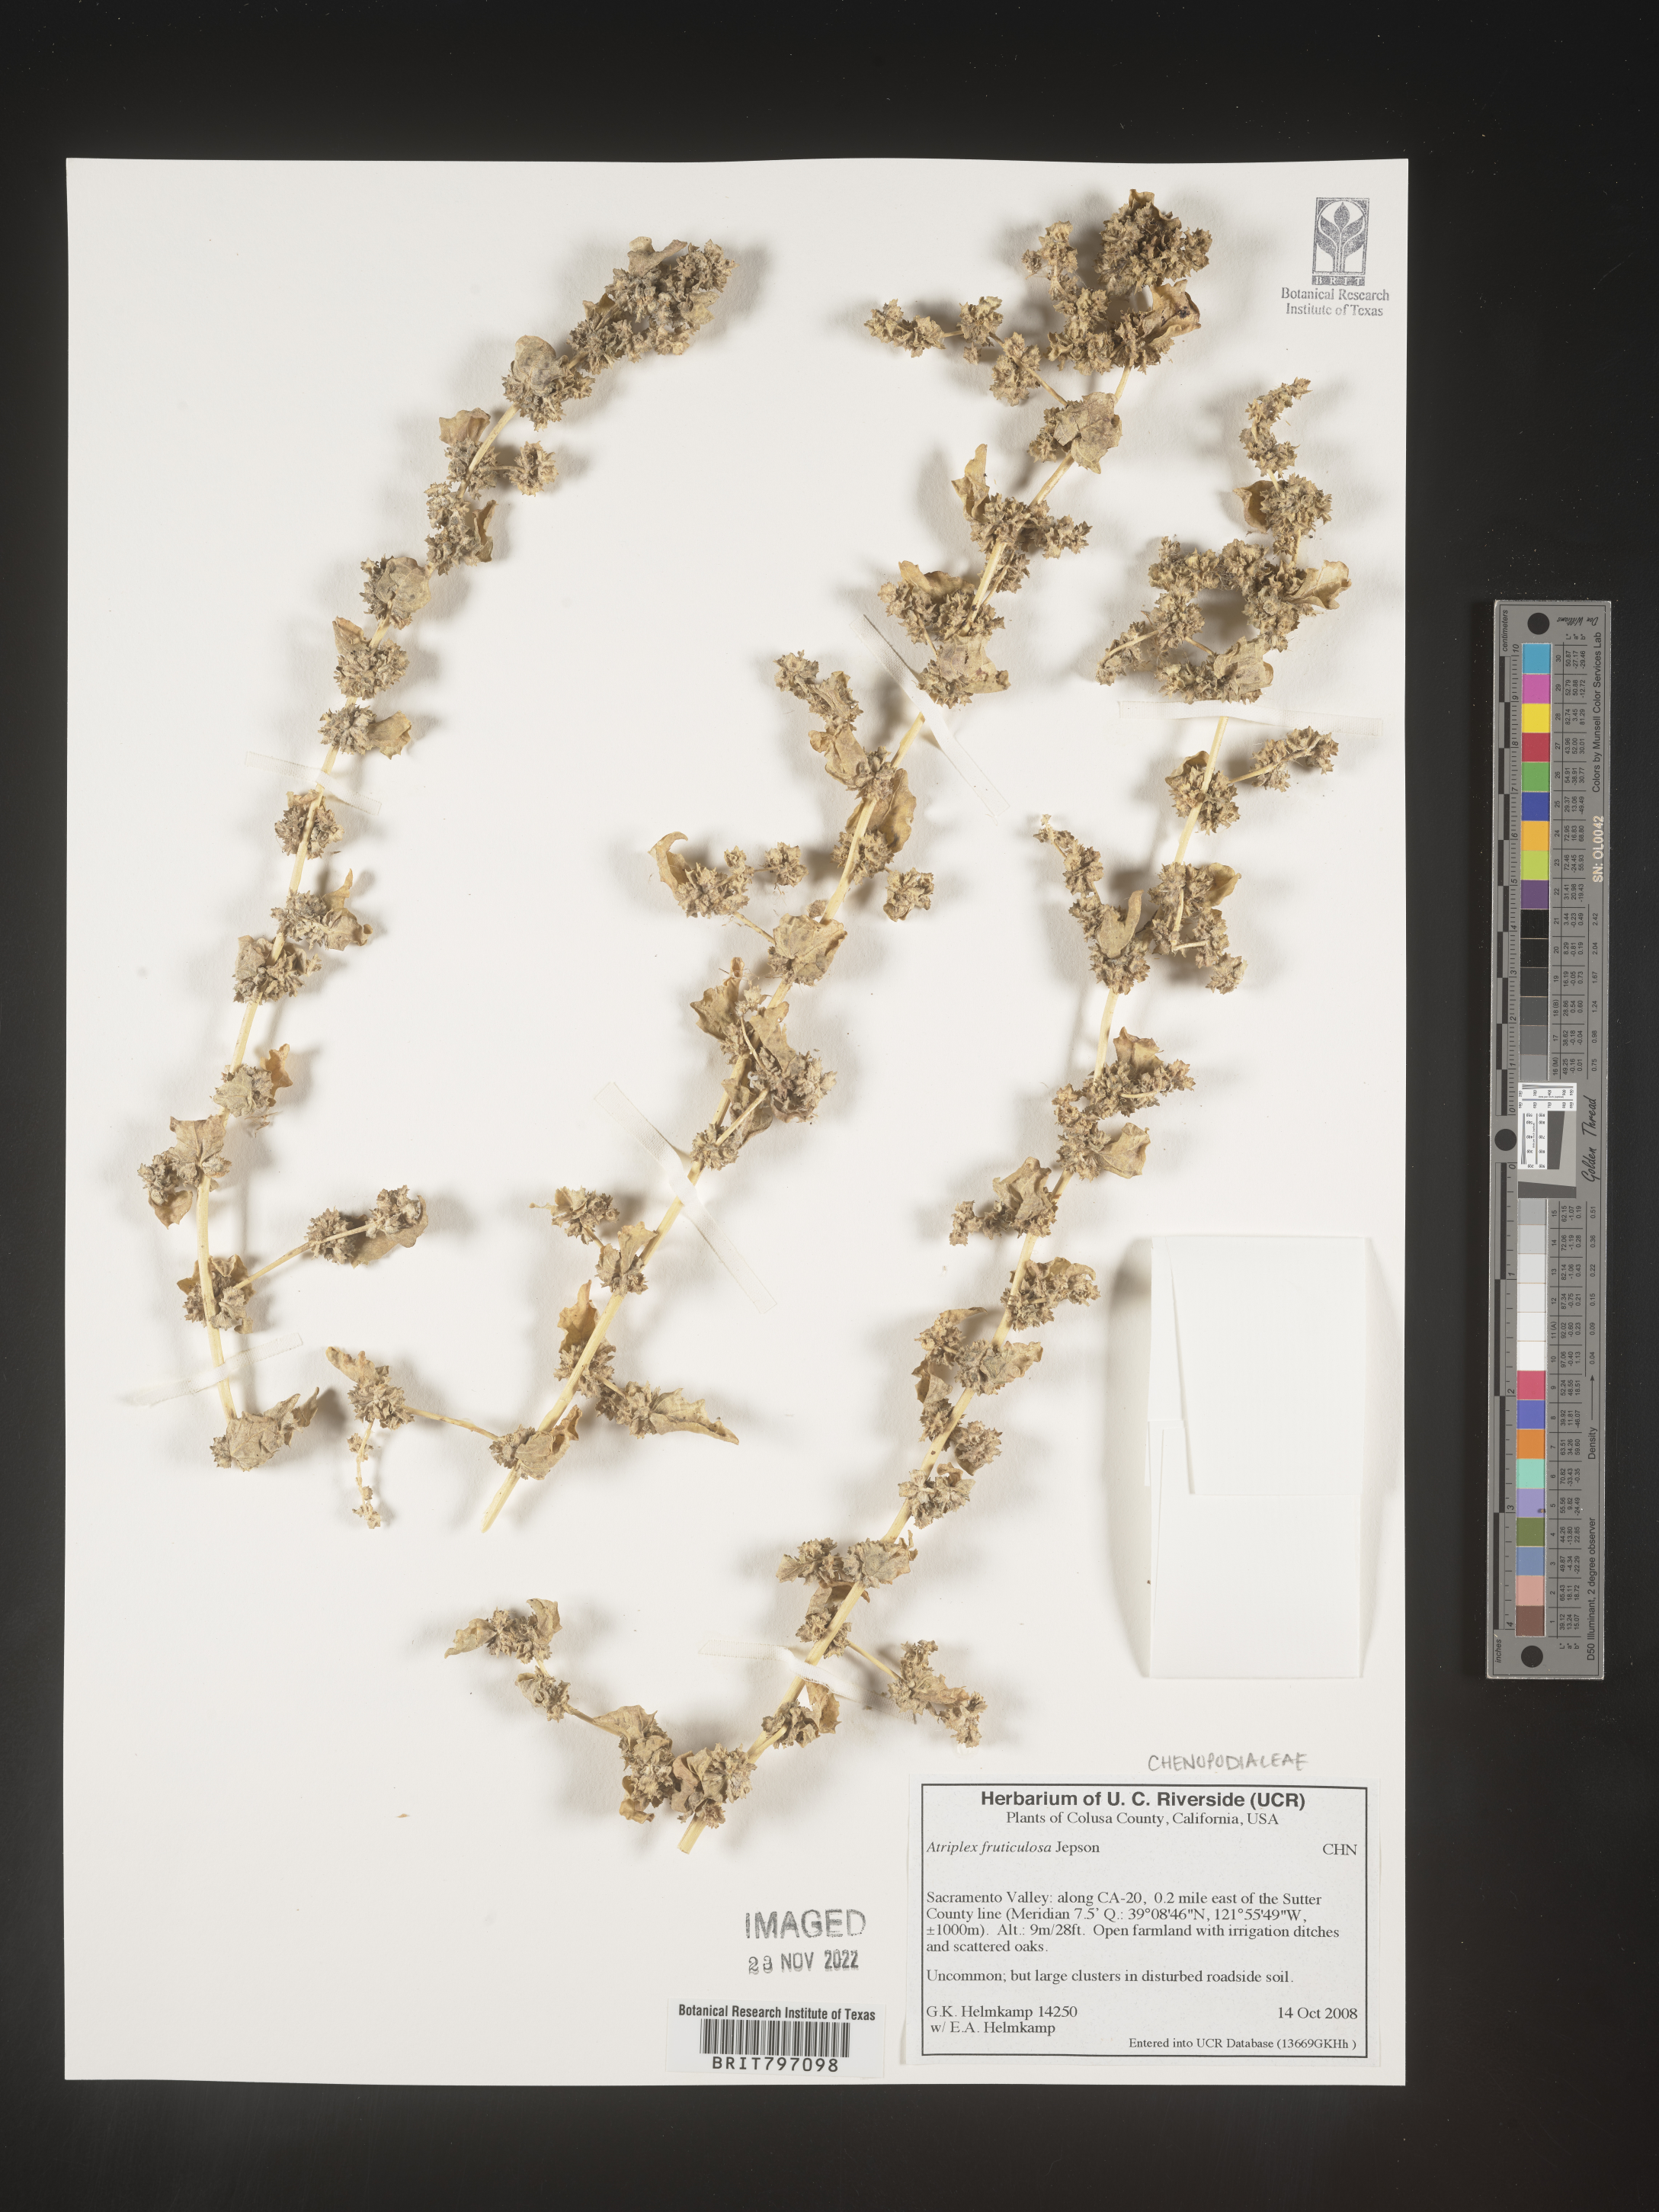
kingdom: Plantae
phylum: Tracheophyta
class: Magnoliopsida
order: Caryophyllales
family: Amaranthaceae
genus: Atriplex
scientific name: Atriplex
